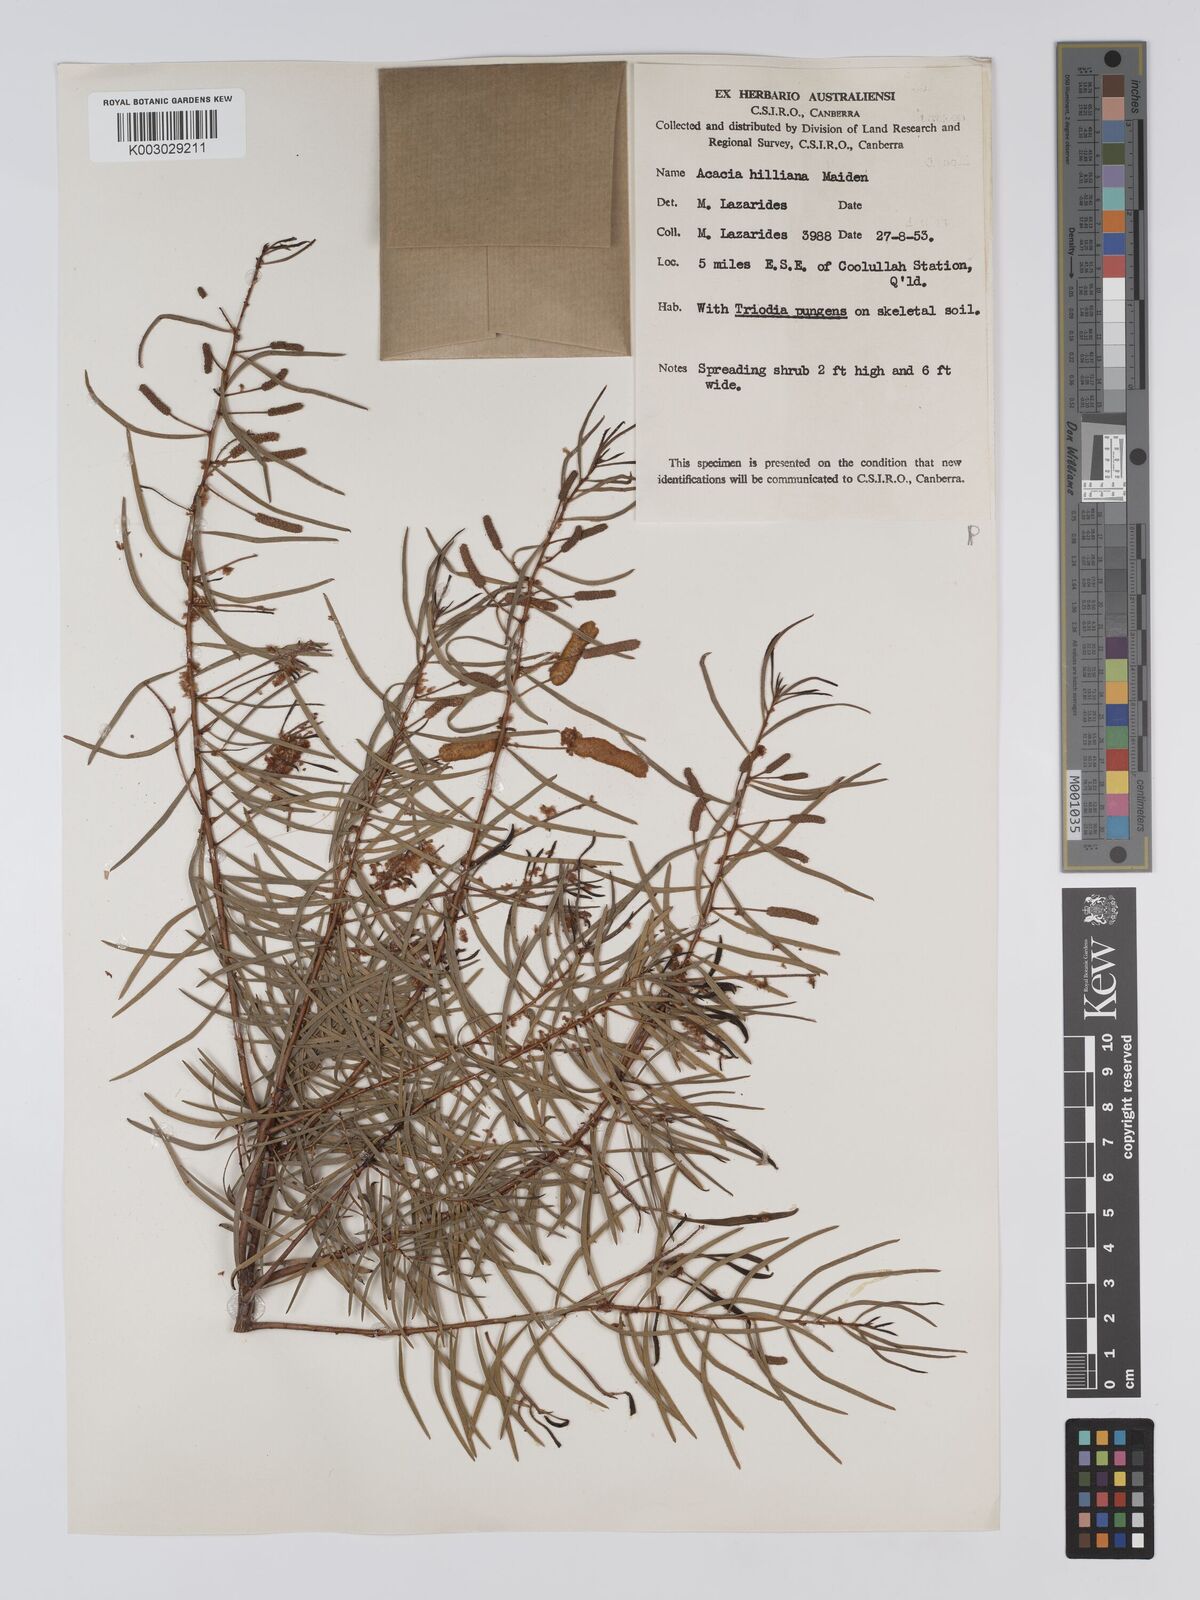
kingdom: Plantae
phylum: Tracheophyta
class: Magnoliopsida
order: Fabales
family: Fabaceae
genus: Acacia
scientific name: Acacia hilliana
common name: Hill's tabletop wattle
